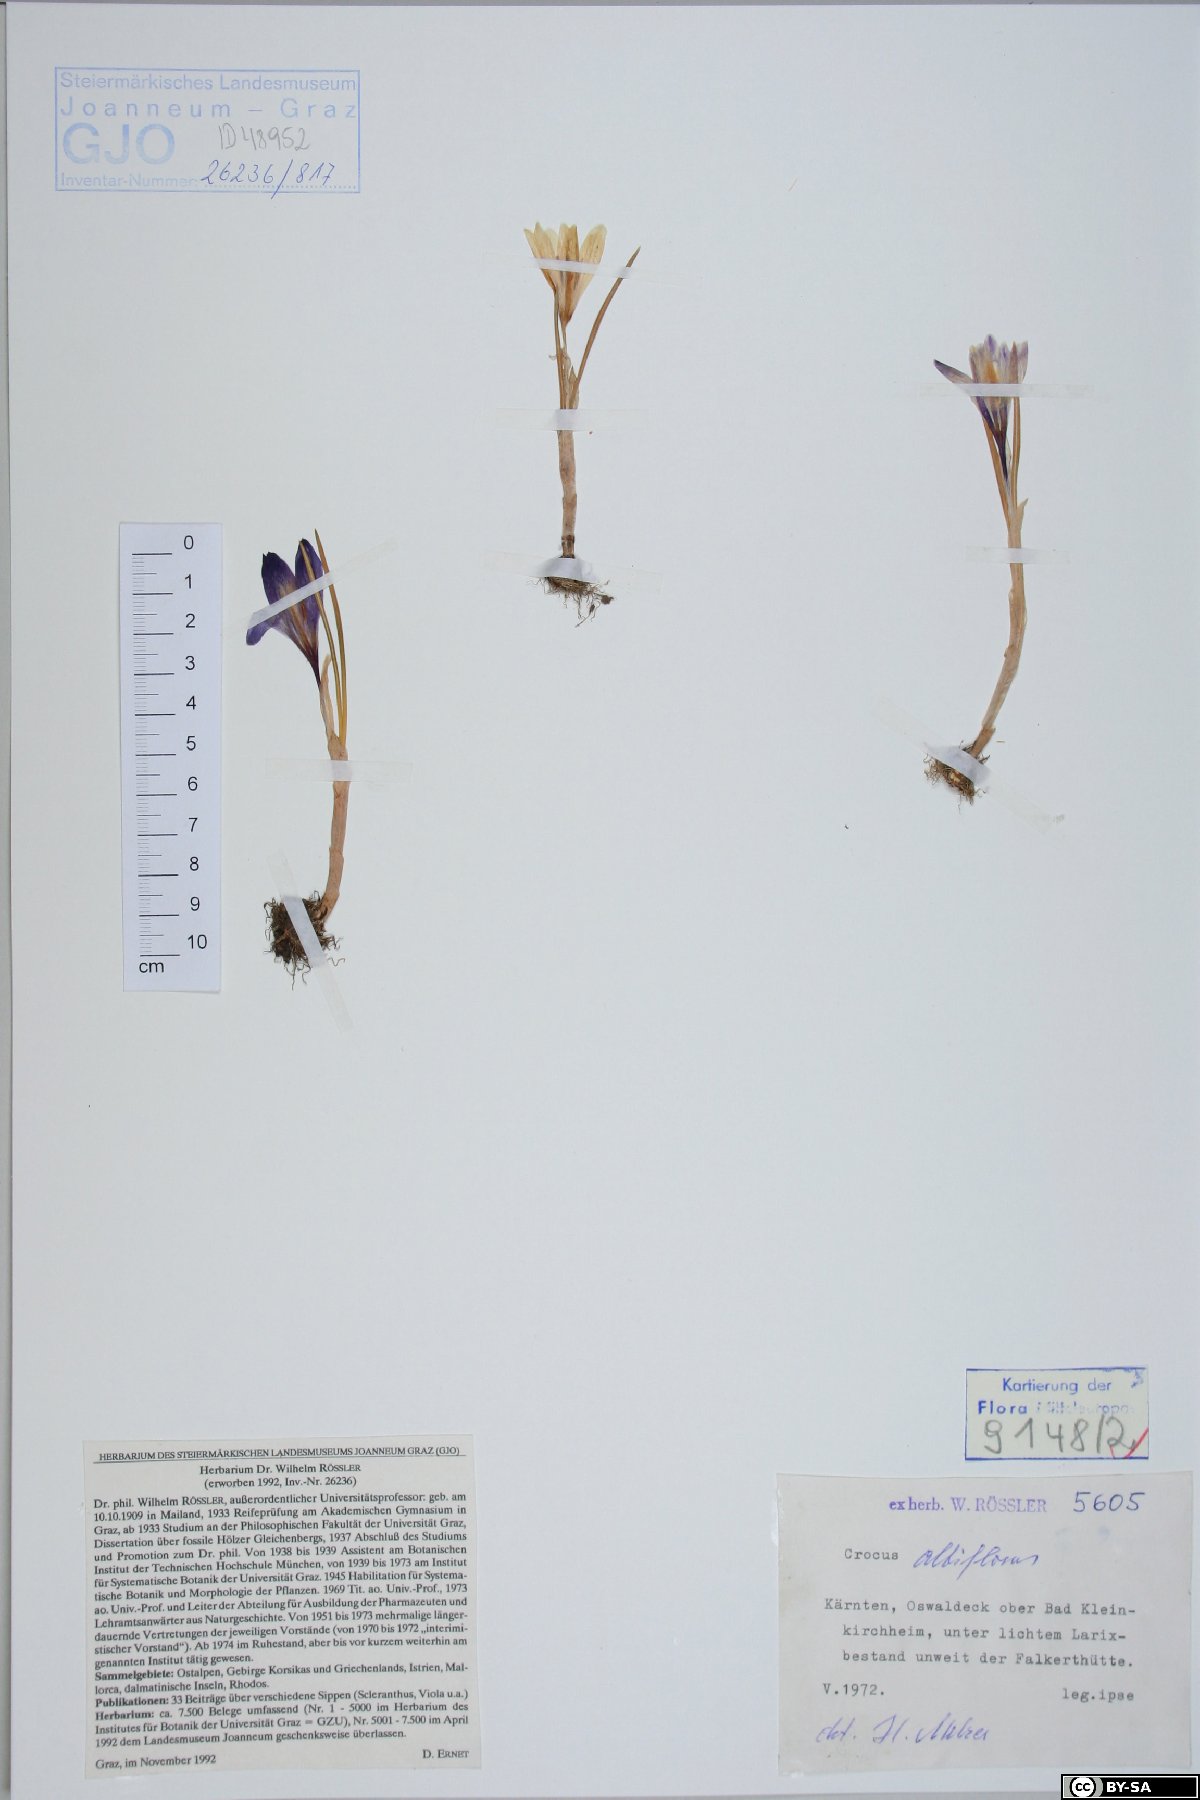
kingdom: Plantae
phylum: Tracheophyta
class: Liliopsida
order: Asparagales
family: Iridaceae
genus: Crocus
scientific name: Crocus vernus
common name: Spring crocus
